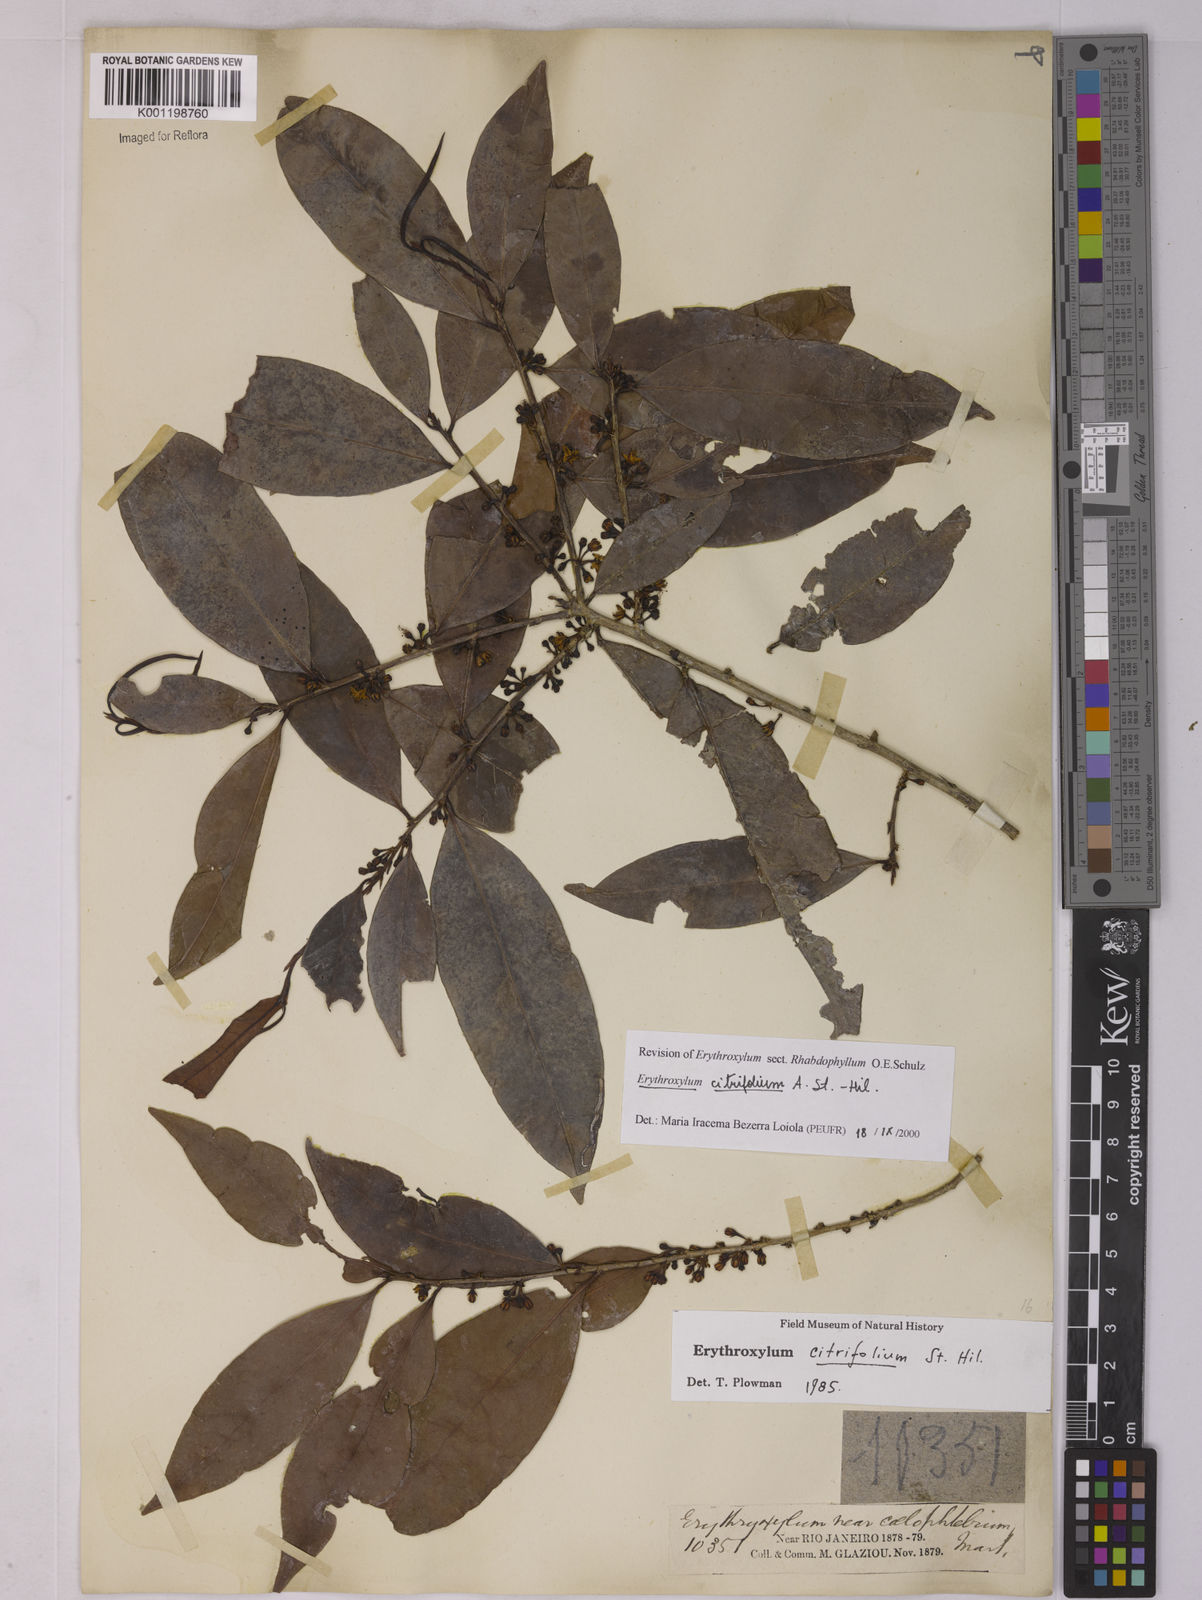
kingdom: Plantae
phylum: Tracheophyta
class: Magnoliopsida
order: Malpighiales
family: Erythroxylaceae
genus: Erythroxylum
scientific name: Erythroxylum citrifolium
